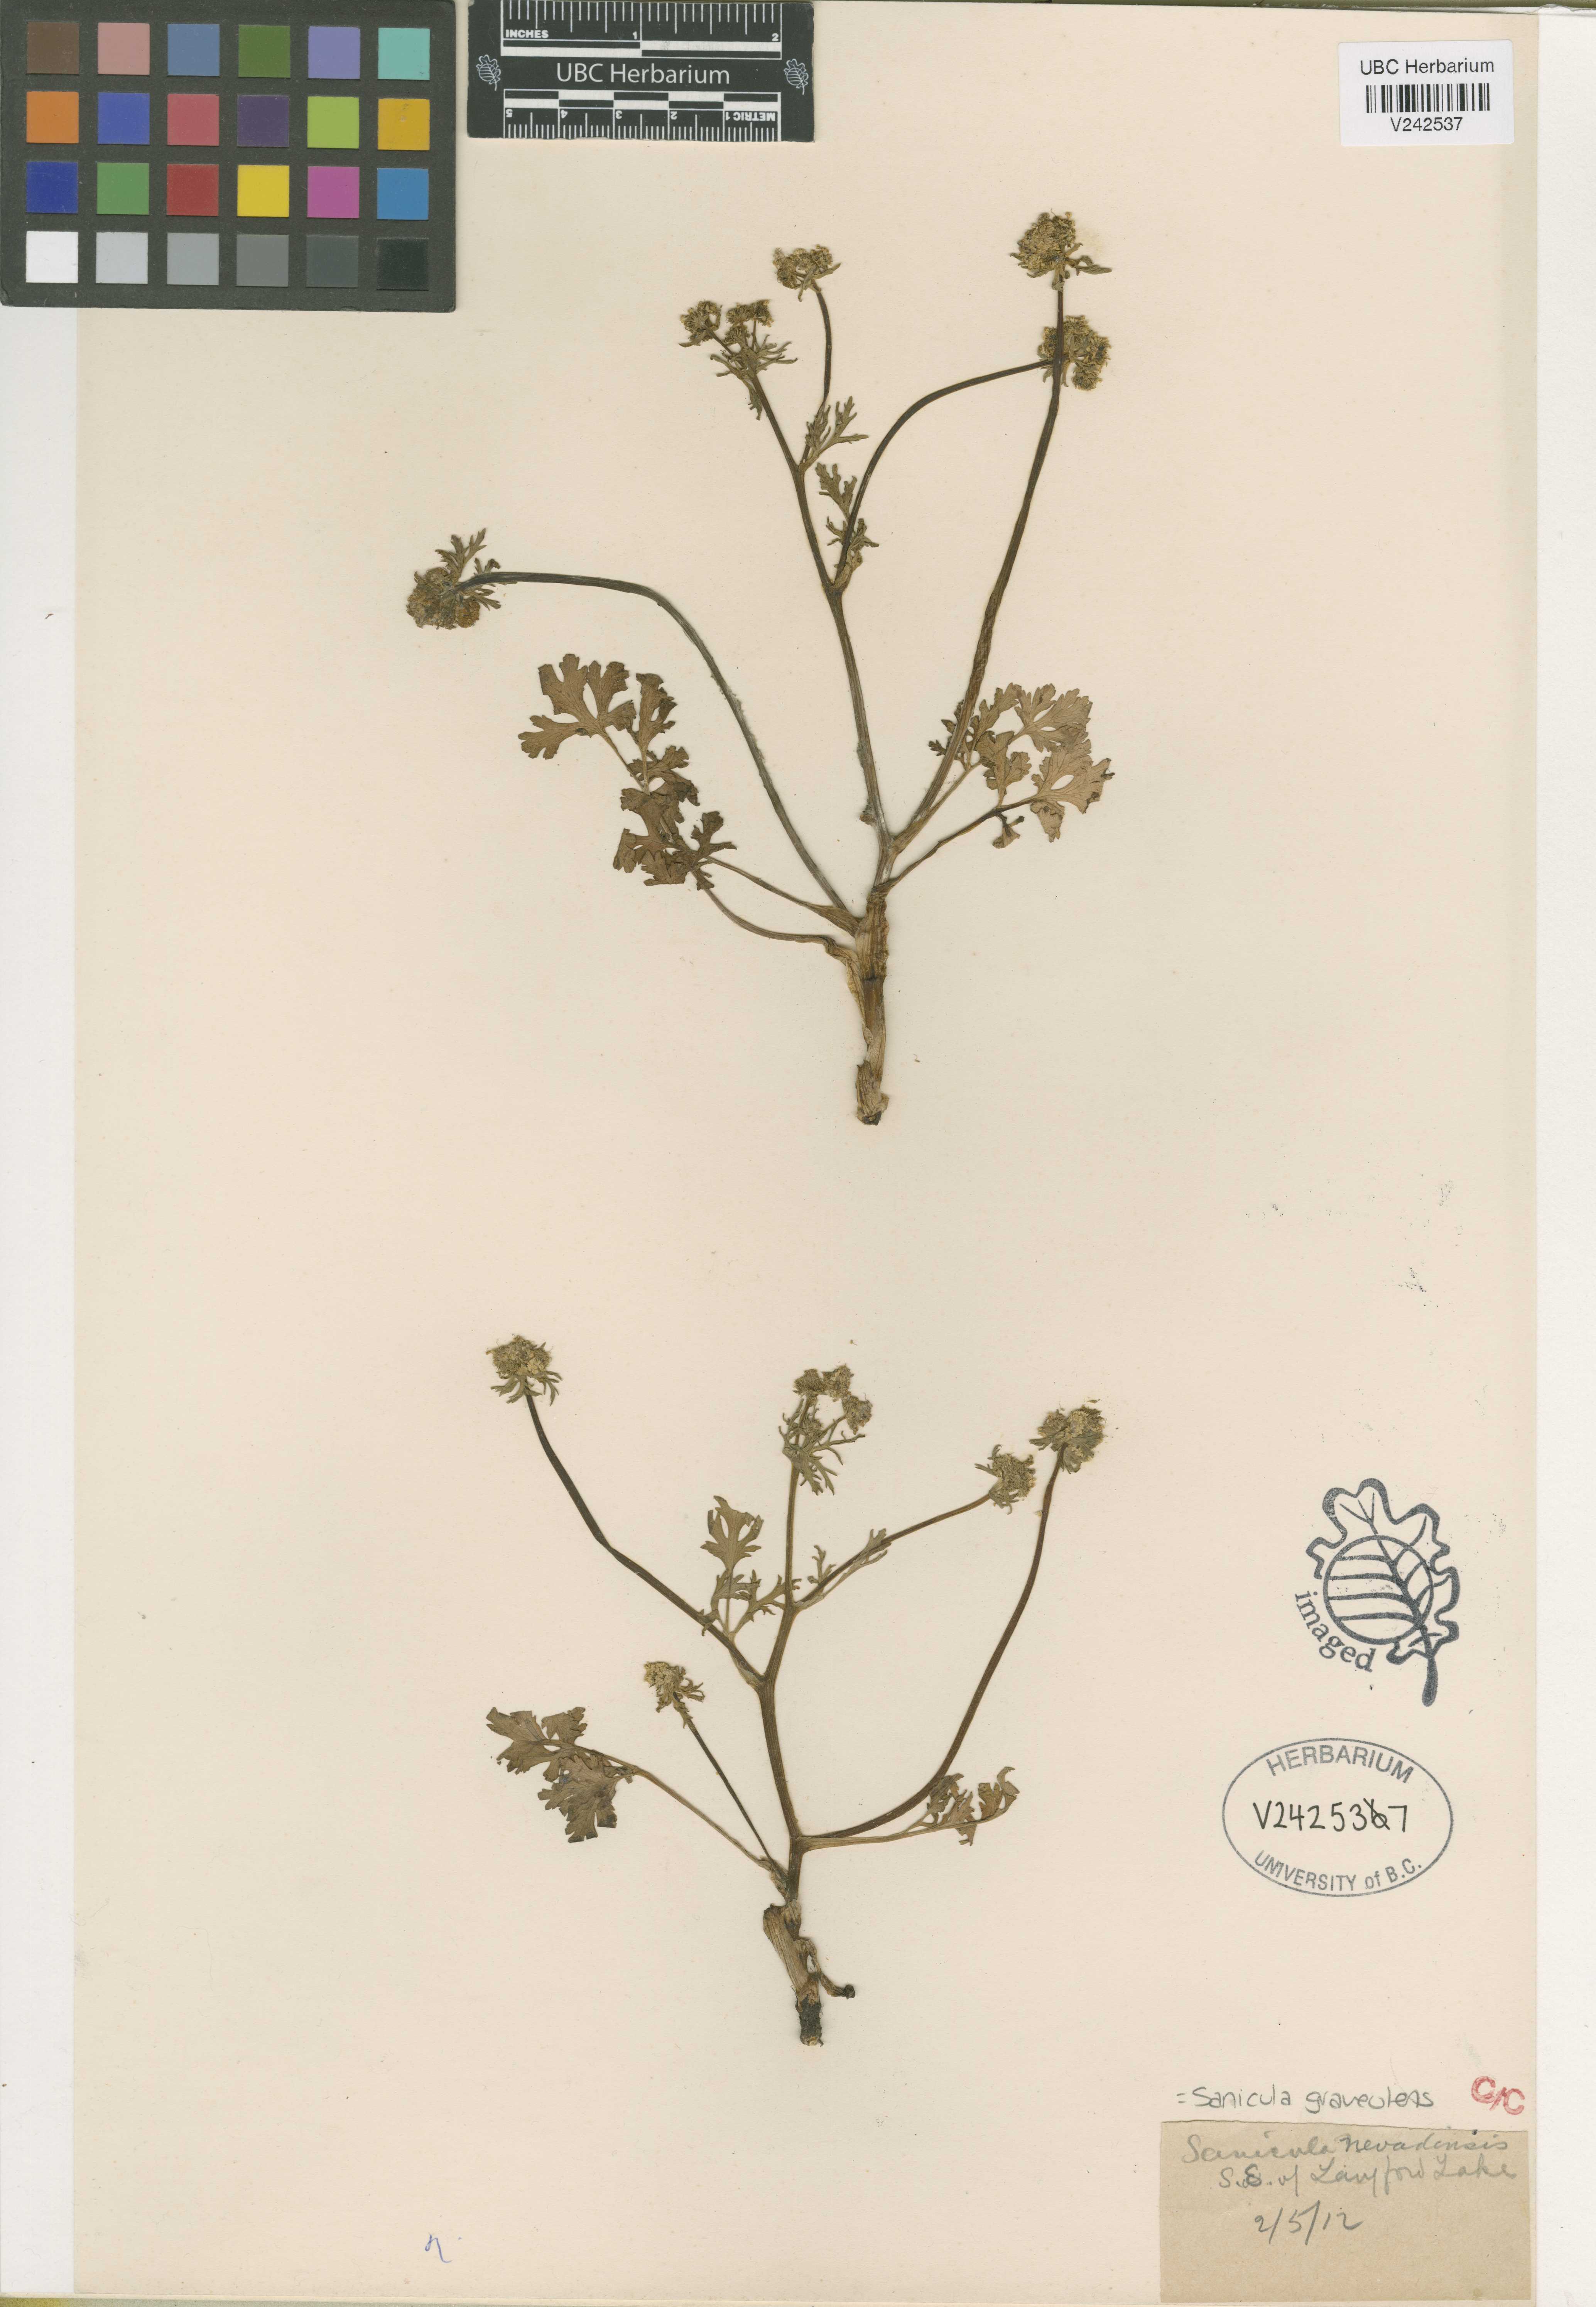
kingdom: Plantae
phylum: Tracheophyta
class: Magnoliopsida
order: Apiales
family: Apiaceae
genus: Sanicula
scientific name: Sanicula graveolens
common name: Sierra sanicle
